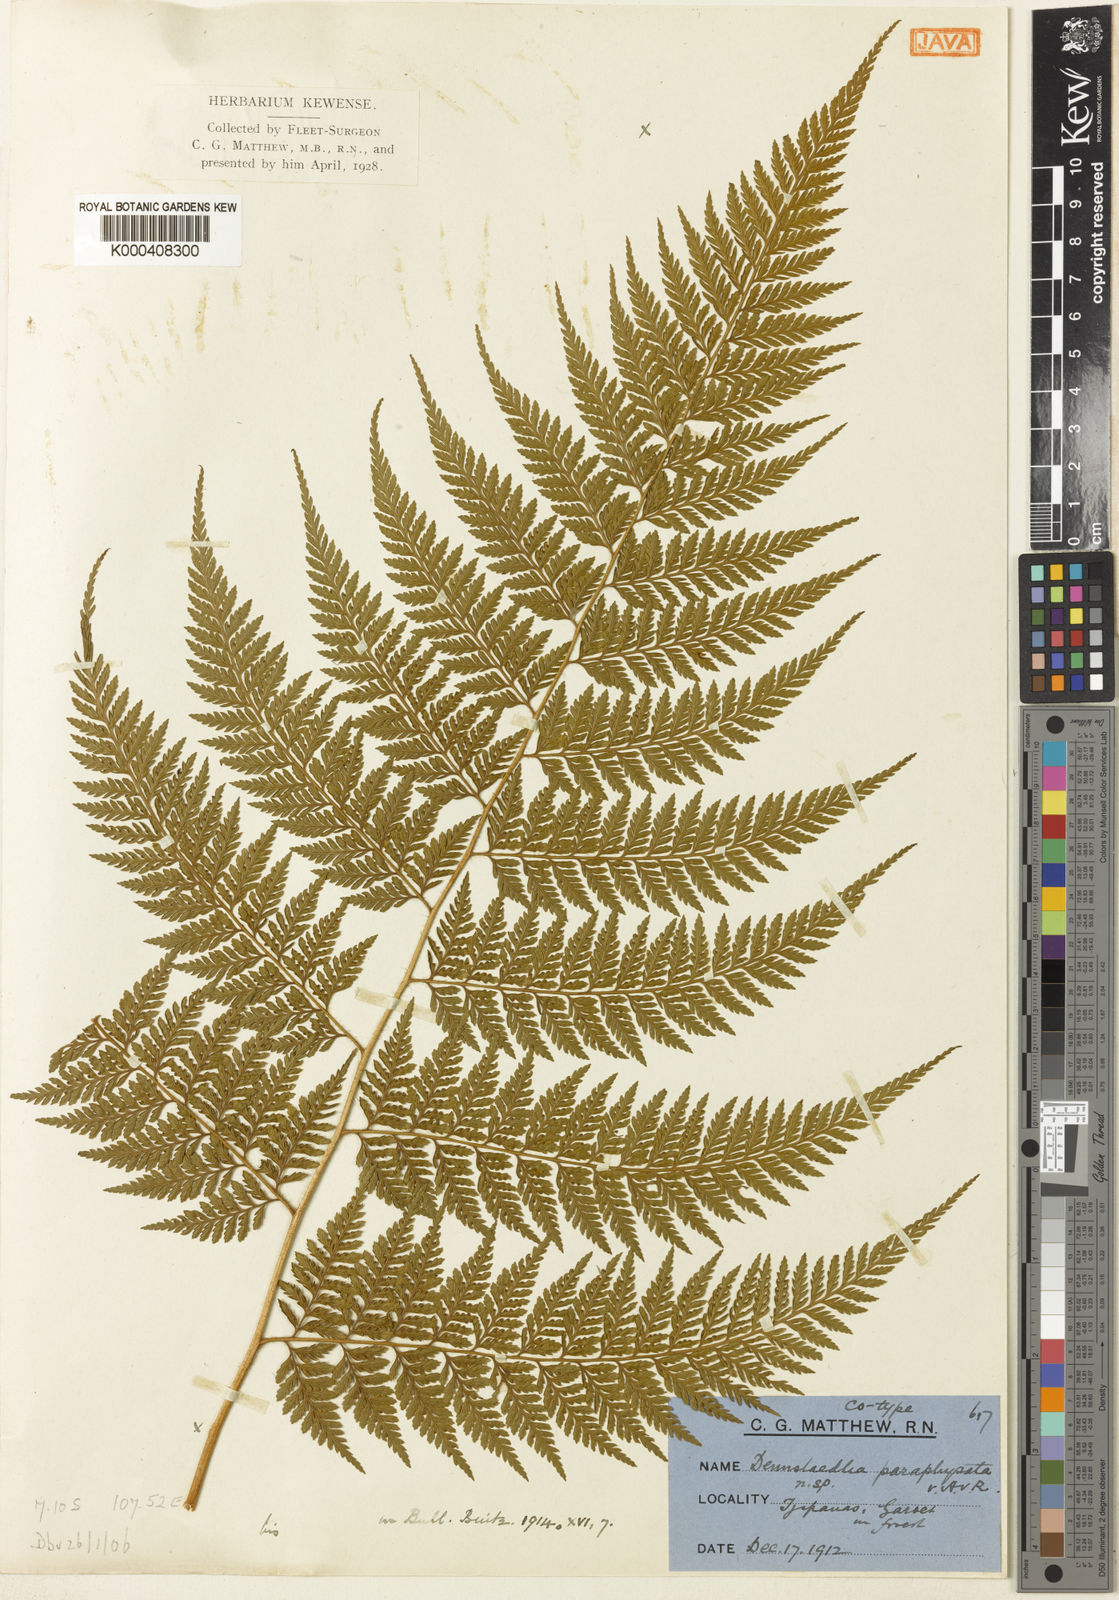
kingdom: Plantae
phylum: Tracheophyta
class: Polypodiopsida
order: Cyatheales
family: Dicksoniaceae
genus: Calochlaena
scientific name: Calochlaena javanica
